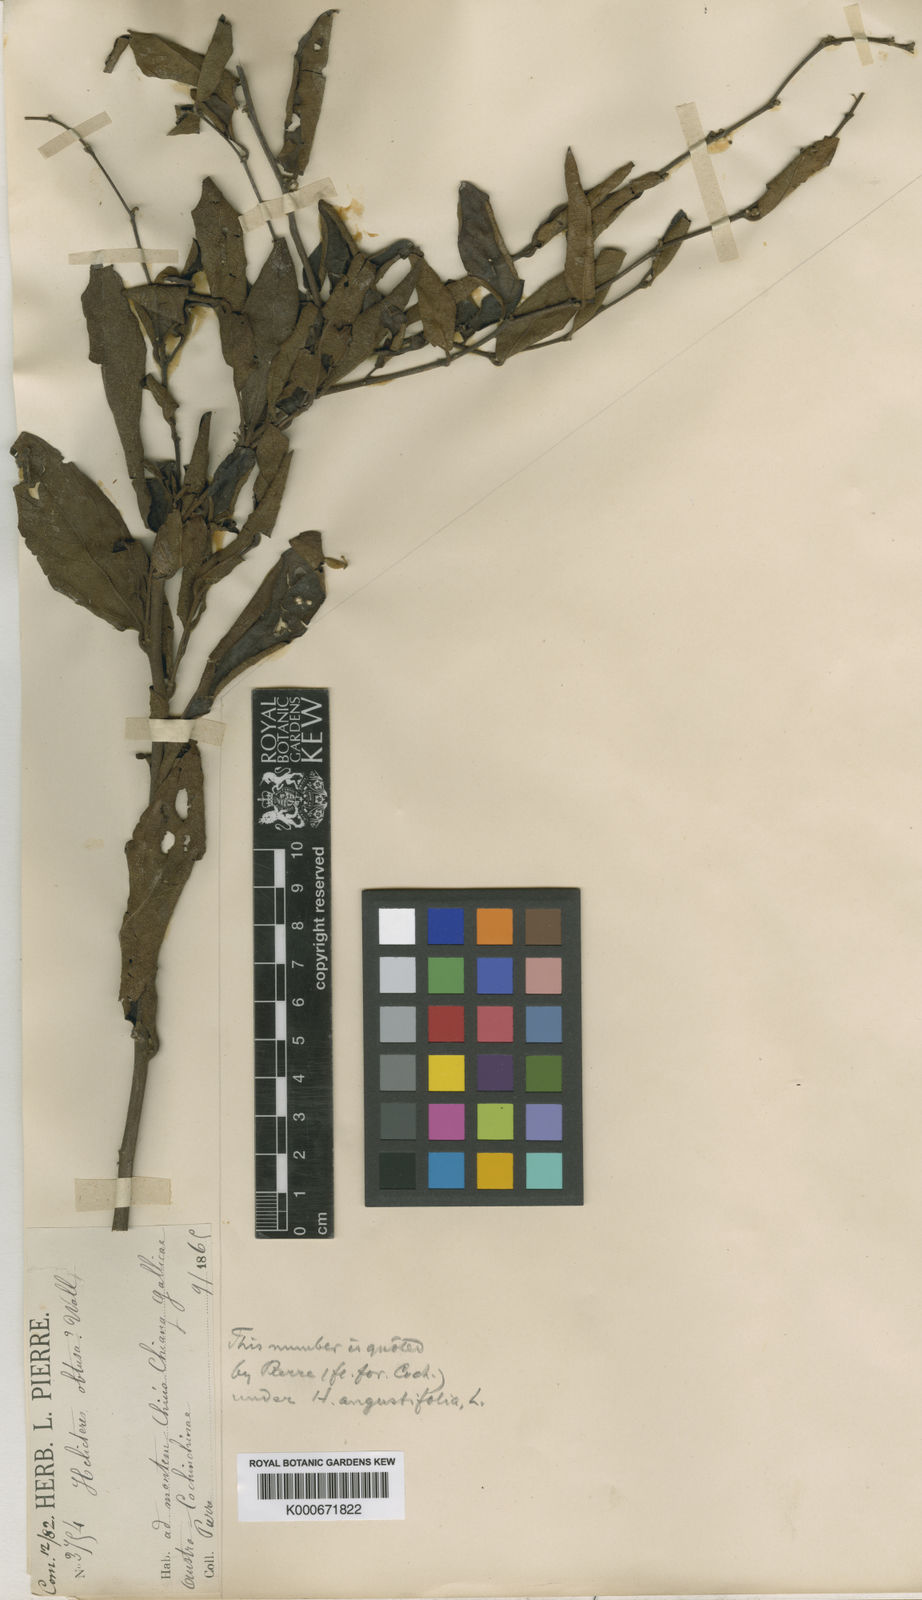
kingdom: Plantae
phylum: Tracheophyta
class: Magnoliopsida
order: Malvales
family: Malvaceae
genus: Helicteres
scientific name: Helicteres angustifolia
